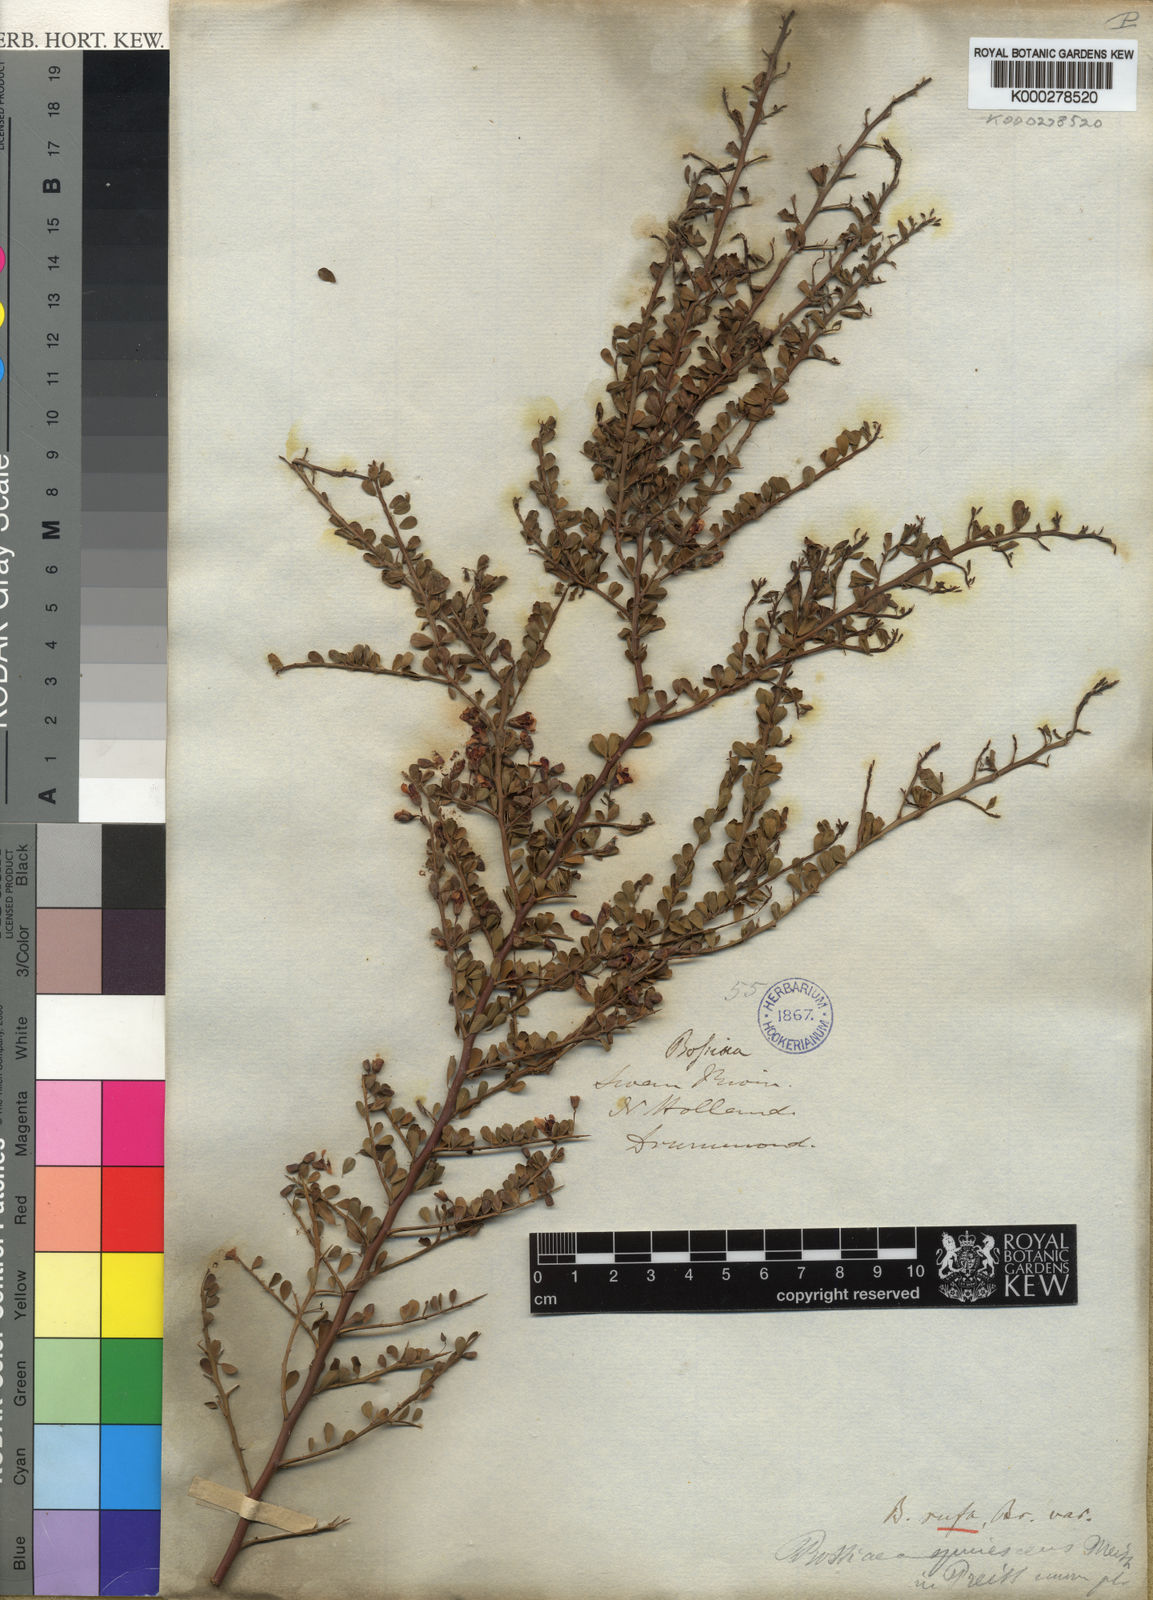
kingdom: Plantae
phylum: Tracheophyta
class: Magnoliopsida
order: Fabales
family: Fabaceae
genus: Bossiaea
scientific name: Bossiaea rufa
